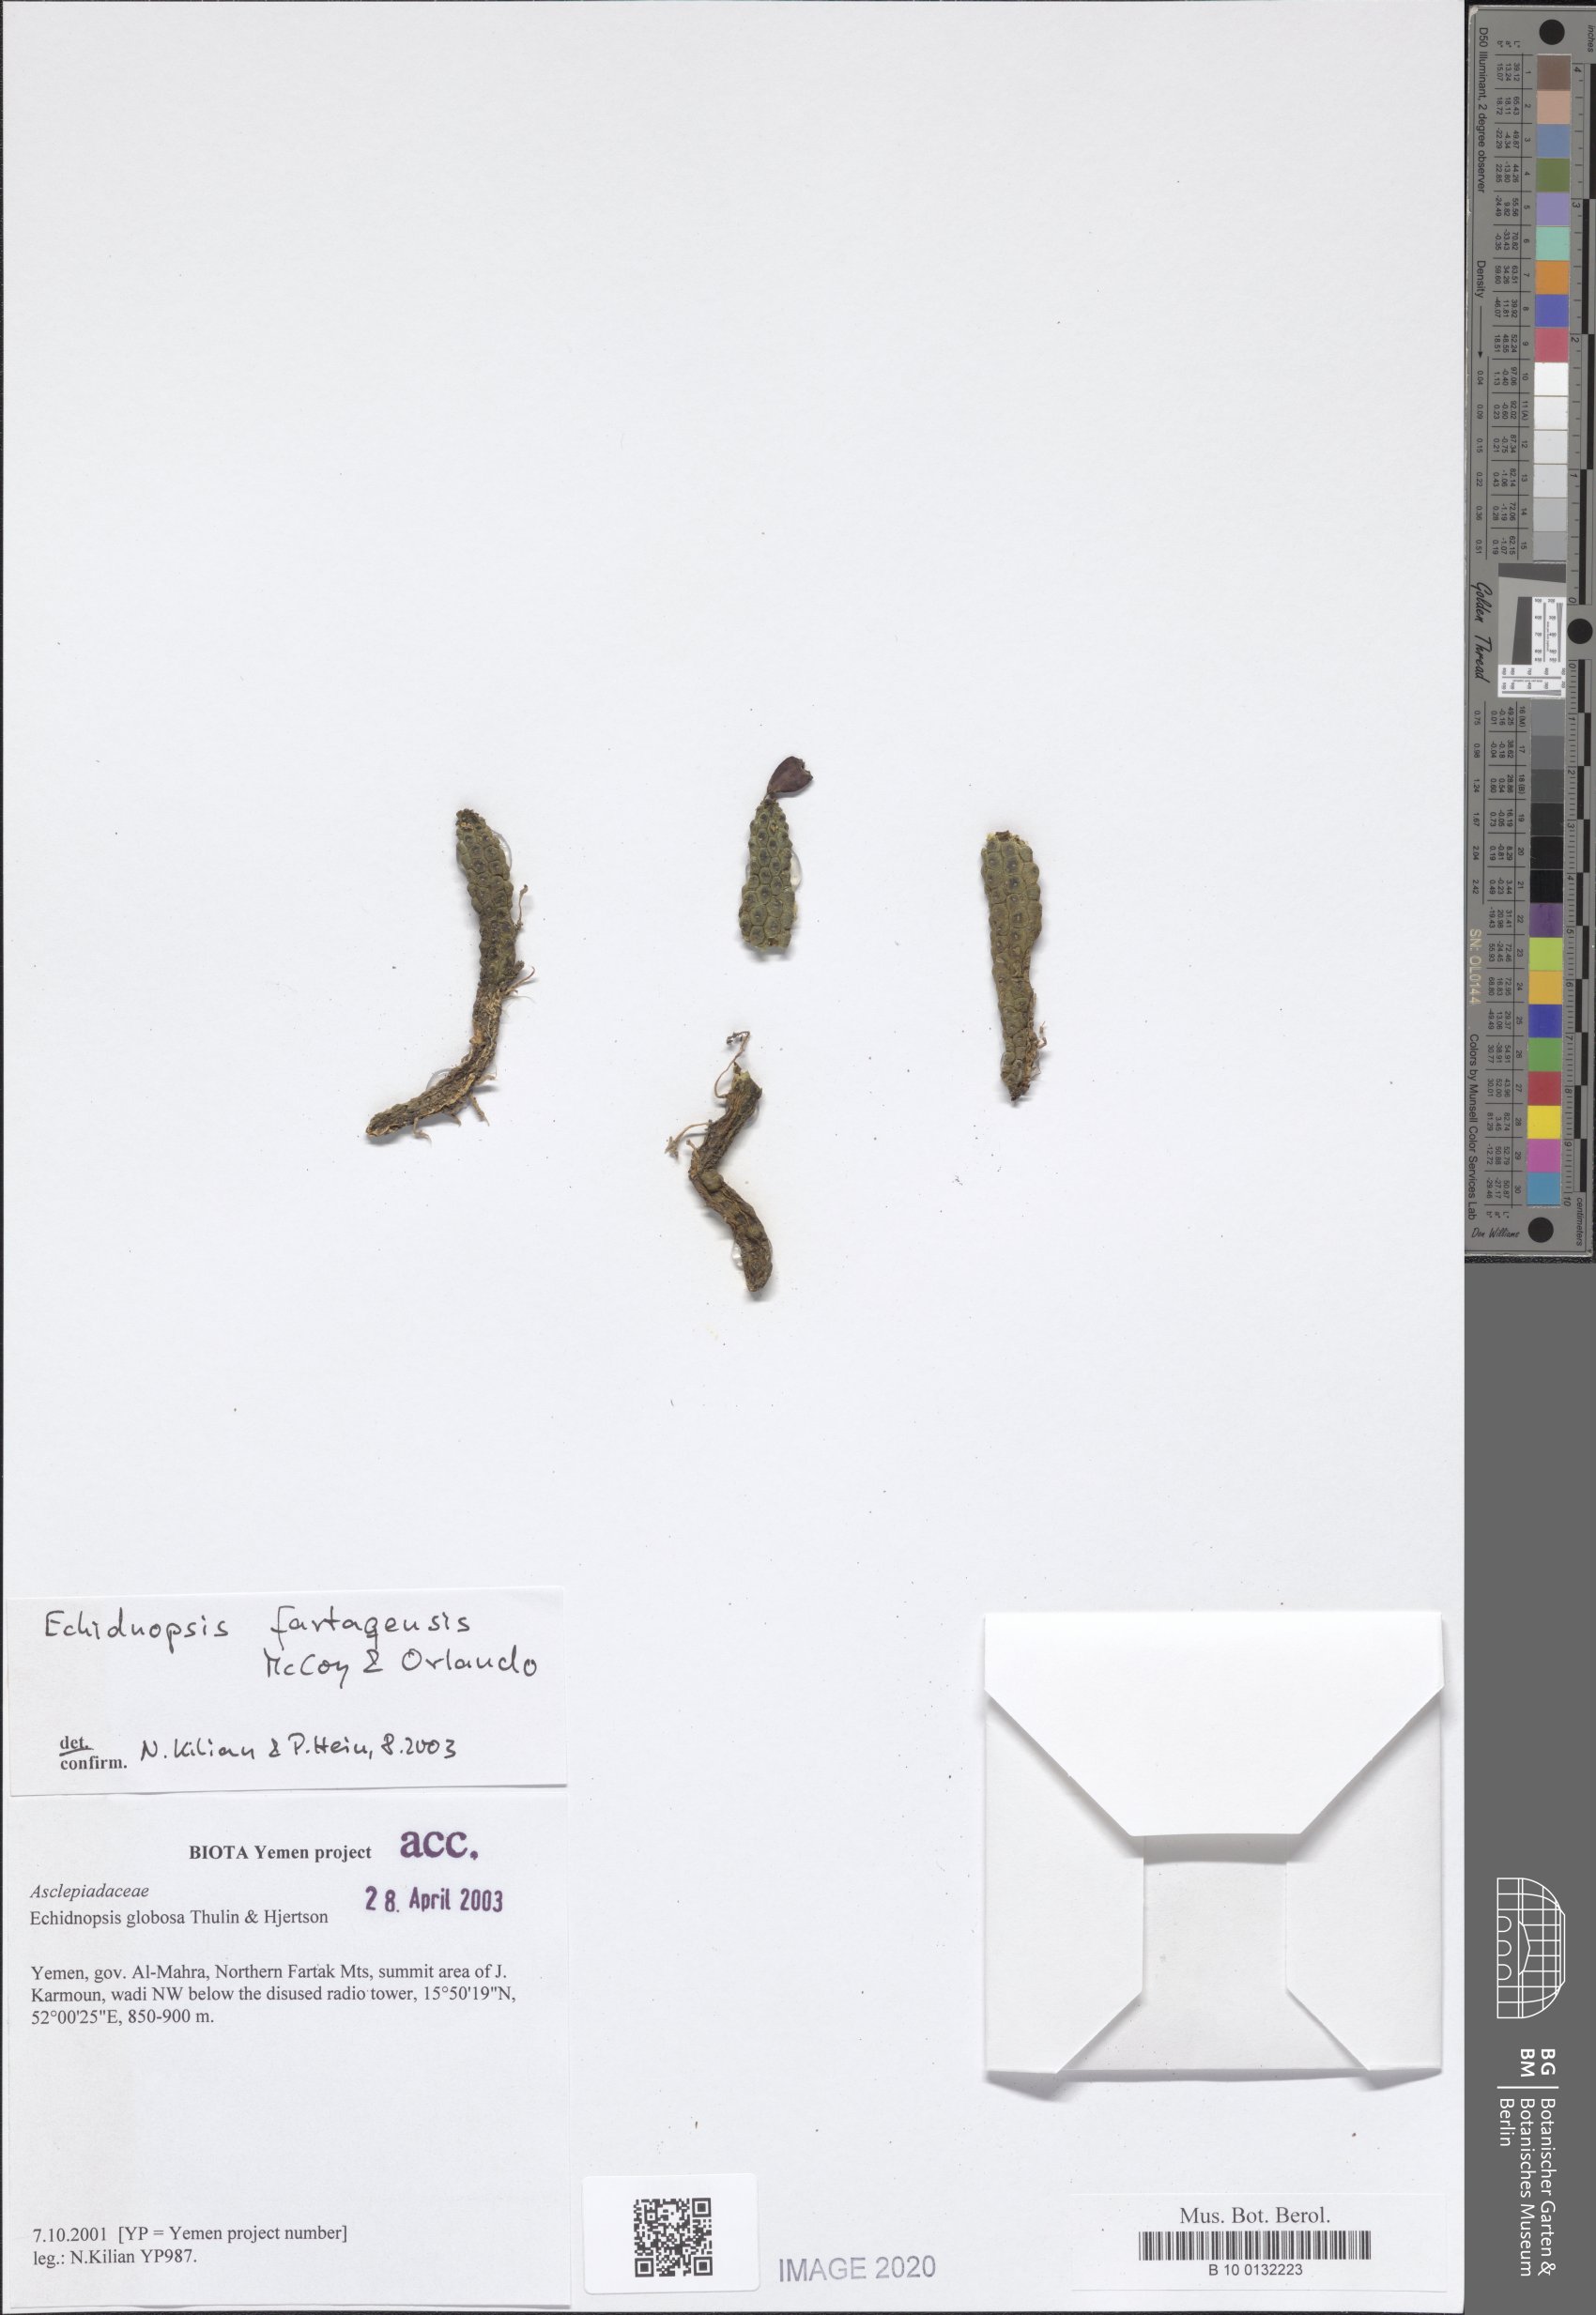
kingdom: Plantae
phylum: Tracheophyta
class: Magnoliopsida
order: Gentianales
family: Apocynaceae
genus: Ceropegia
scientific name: Ceropegia globosa
